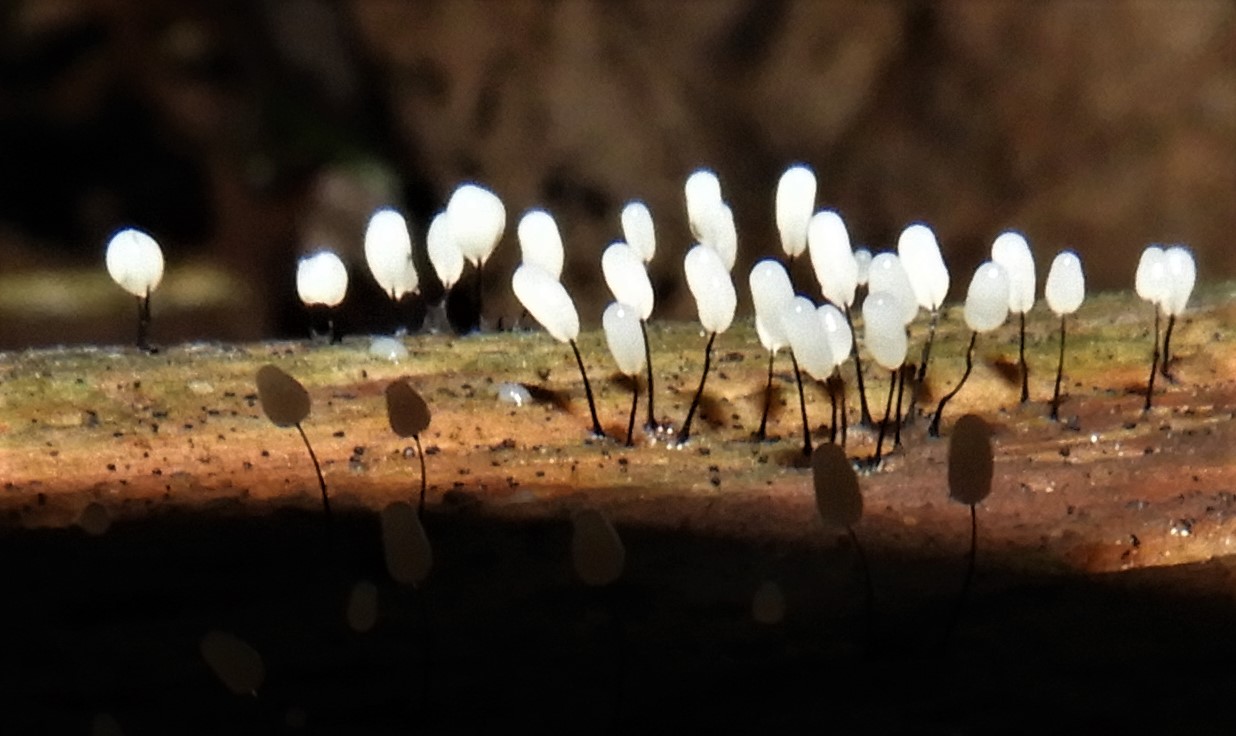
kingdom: Protozoa
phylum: Mycetozoa
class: Myxomycetes
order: Stemonitidales
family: Stemonitidaceae
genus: Comatricha
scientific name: Comatricha
